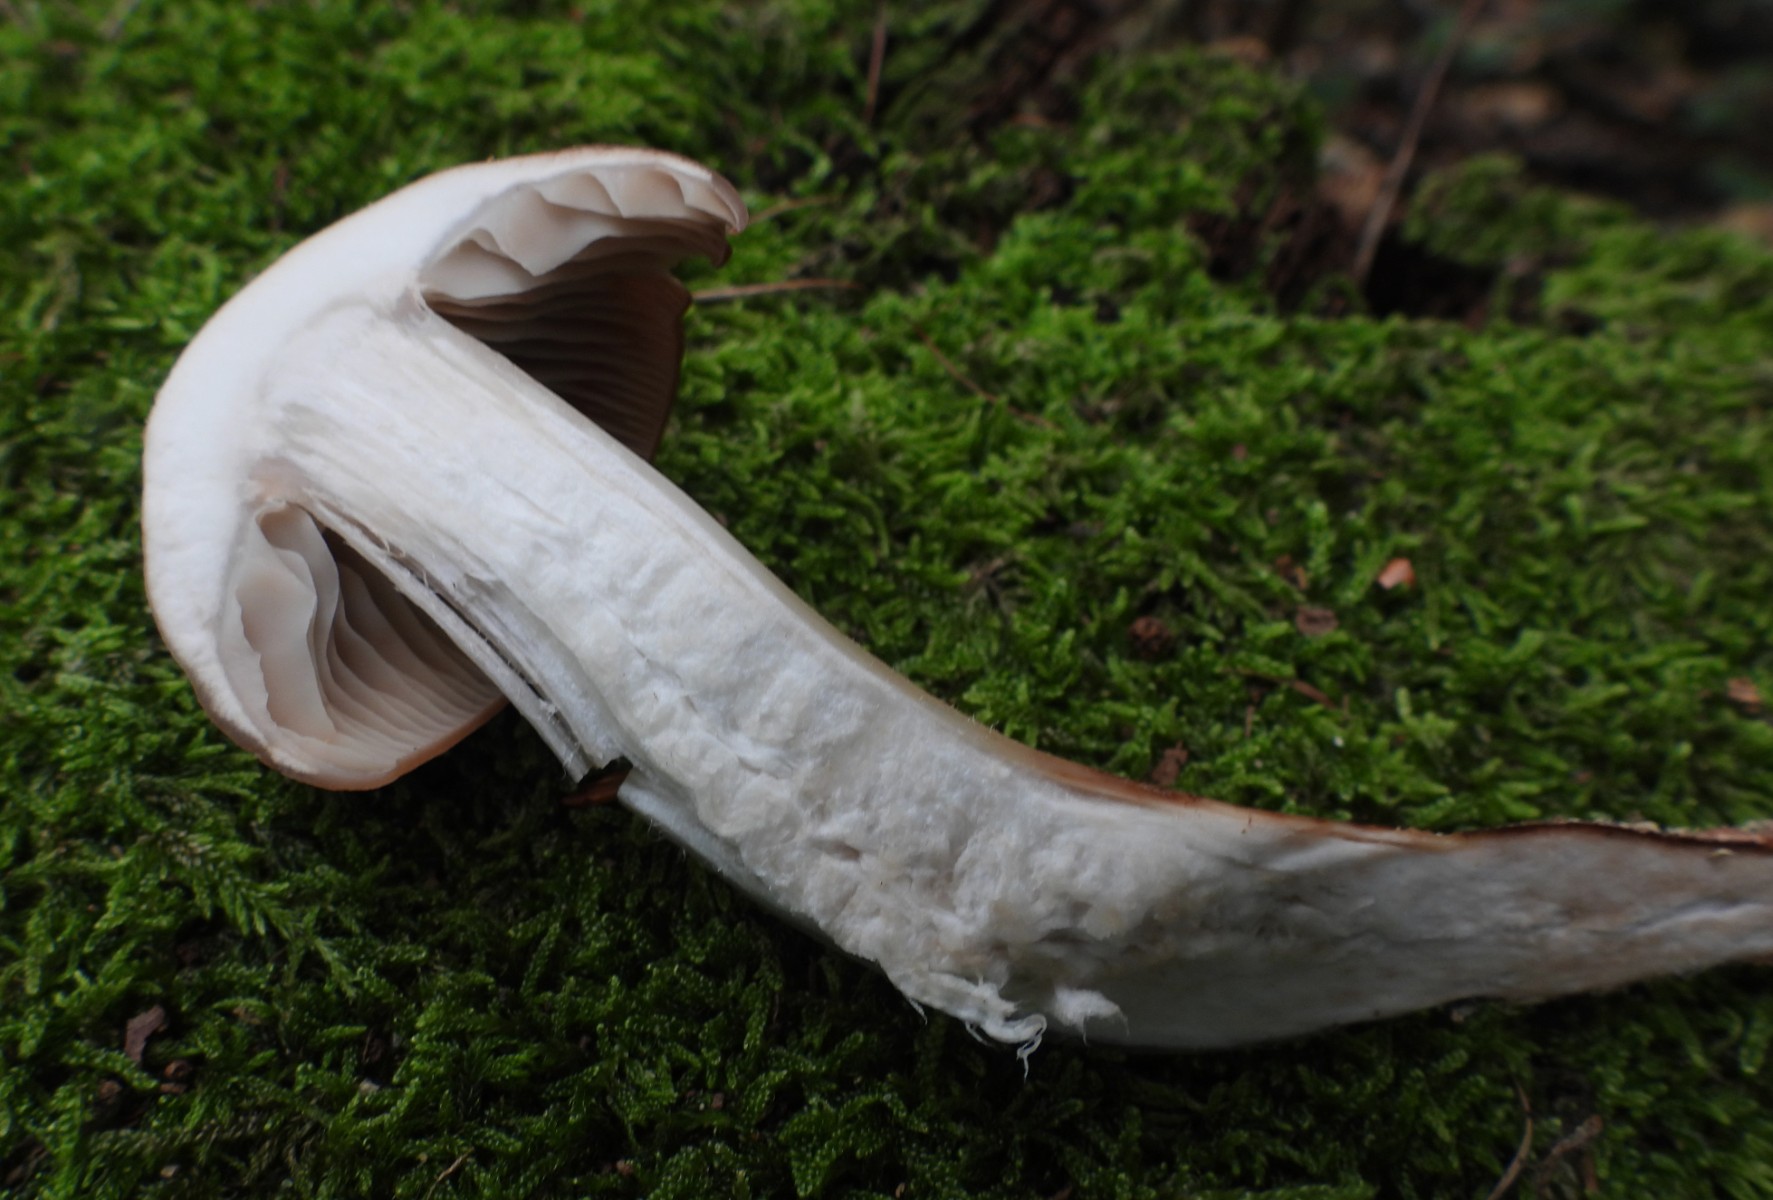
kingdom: Fungi
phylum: Basidiomycota
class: Agaricomycetes
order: Agaricales
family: Omphalotaceae
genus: Gymnopus
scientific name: Gymnopus fusipes
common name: tenstokket fladhat
